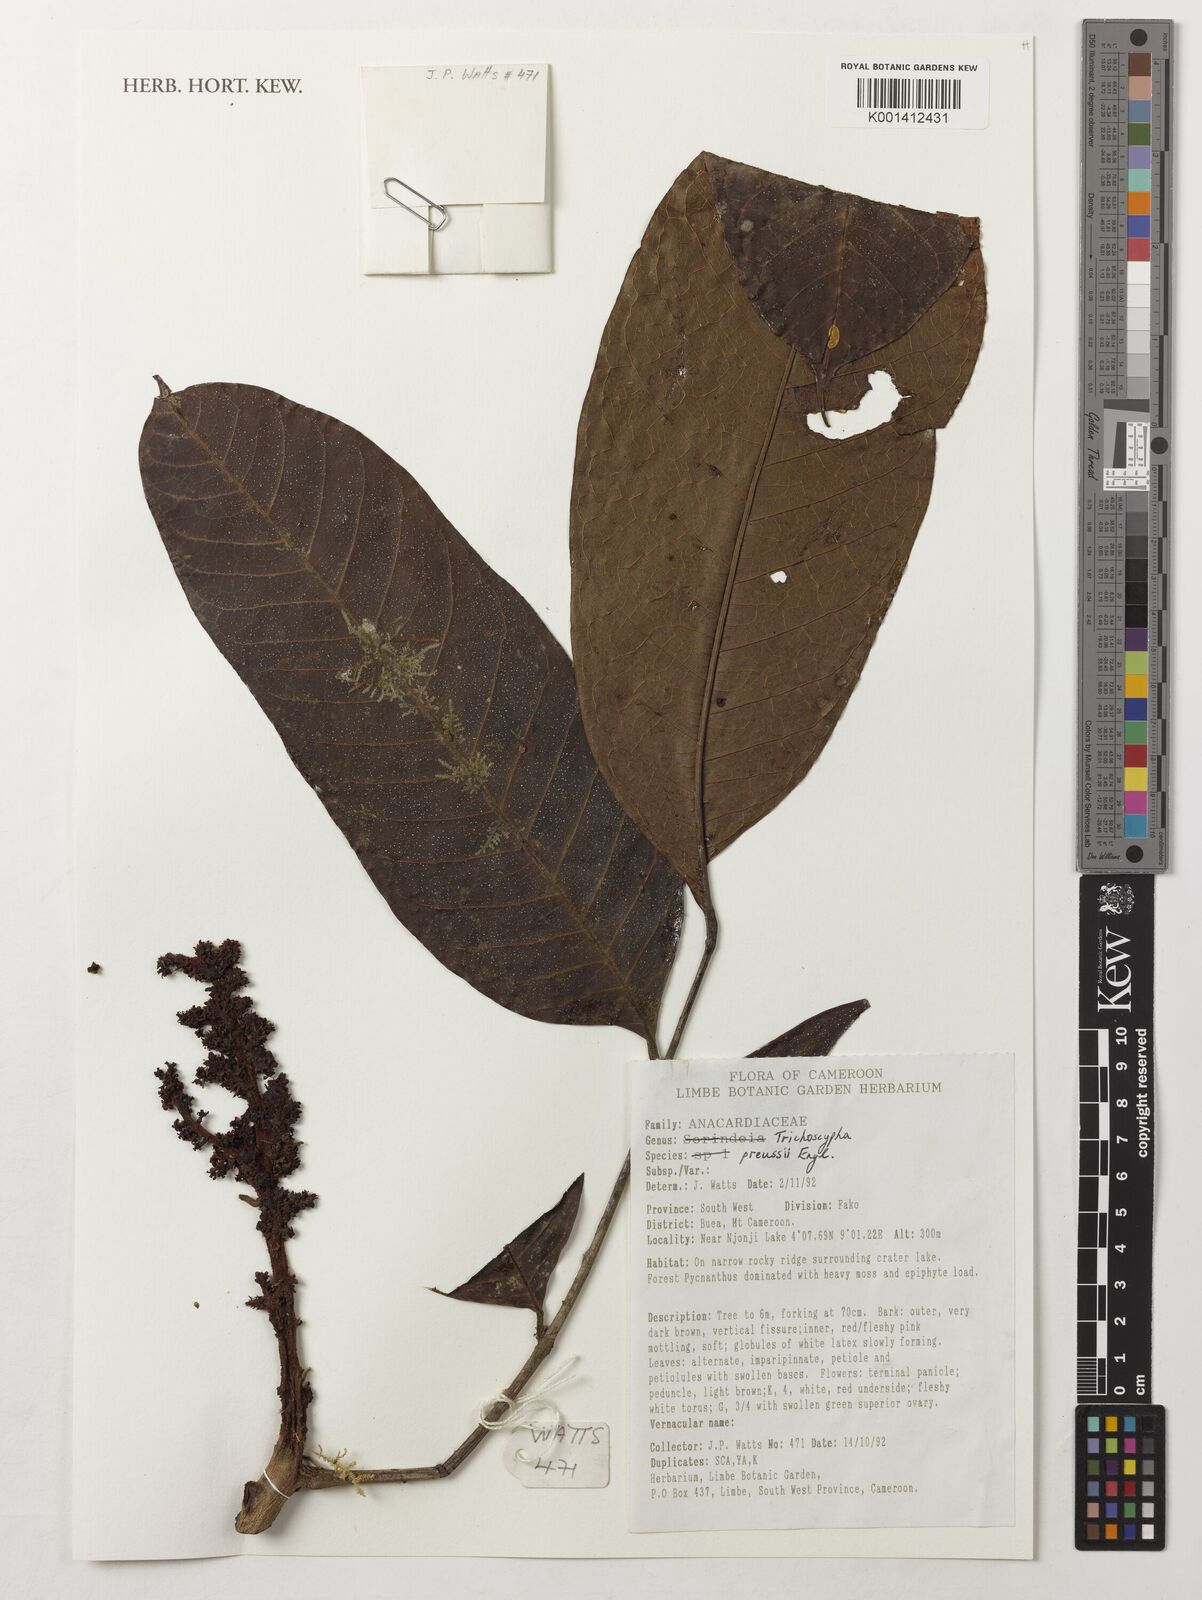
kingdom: Plantae
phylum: Tracheophyta
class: Magnoliopsida
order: Sapindales
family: Anacardiaceae
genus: Trichoscypha
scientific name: Trichoscypha bijuga
